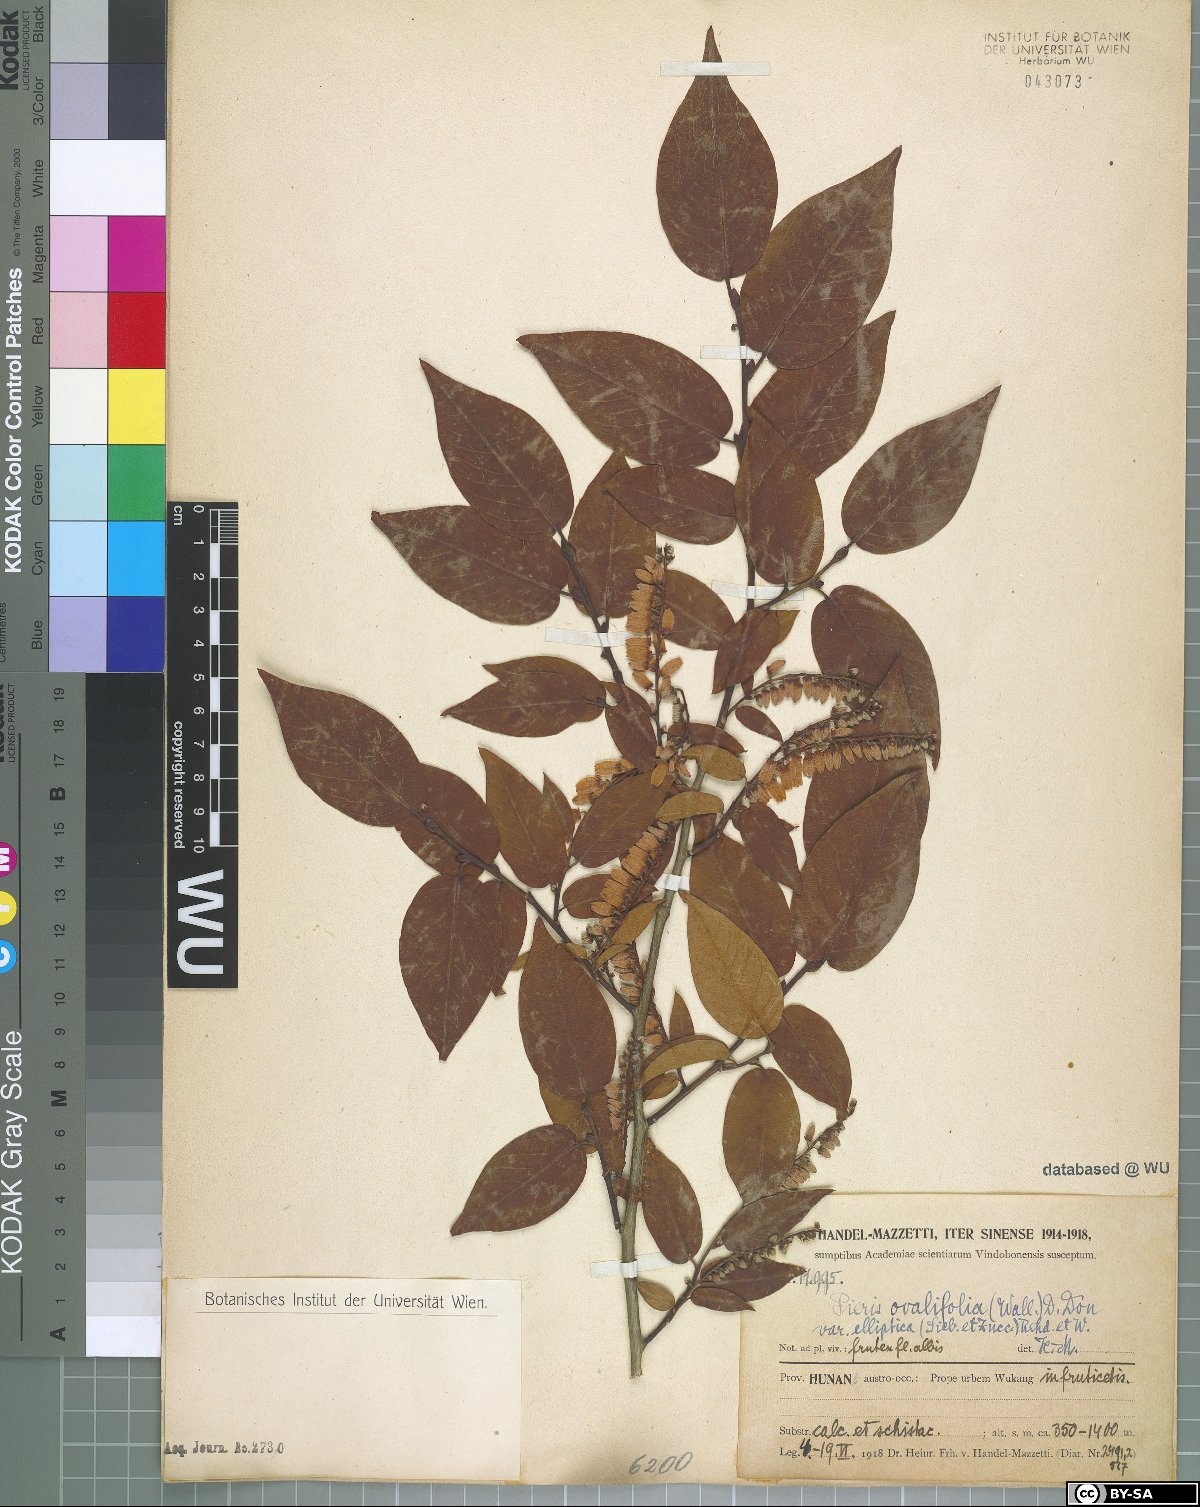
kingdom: Plantae
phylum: Tracheophyta
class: Magnoliopsida
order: Ericales
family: Ericaceae
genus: Lyonia
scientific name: Lyonia ovalifolia
